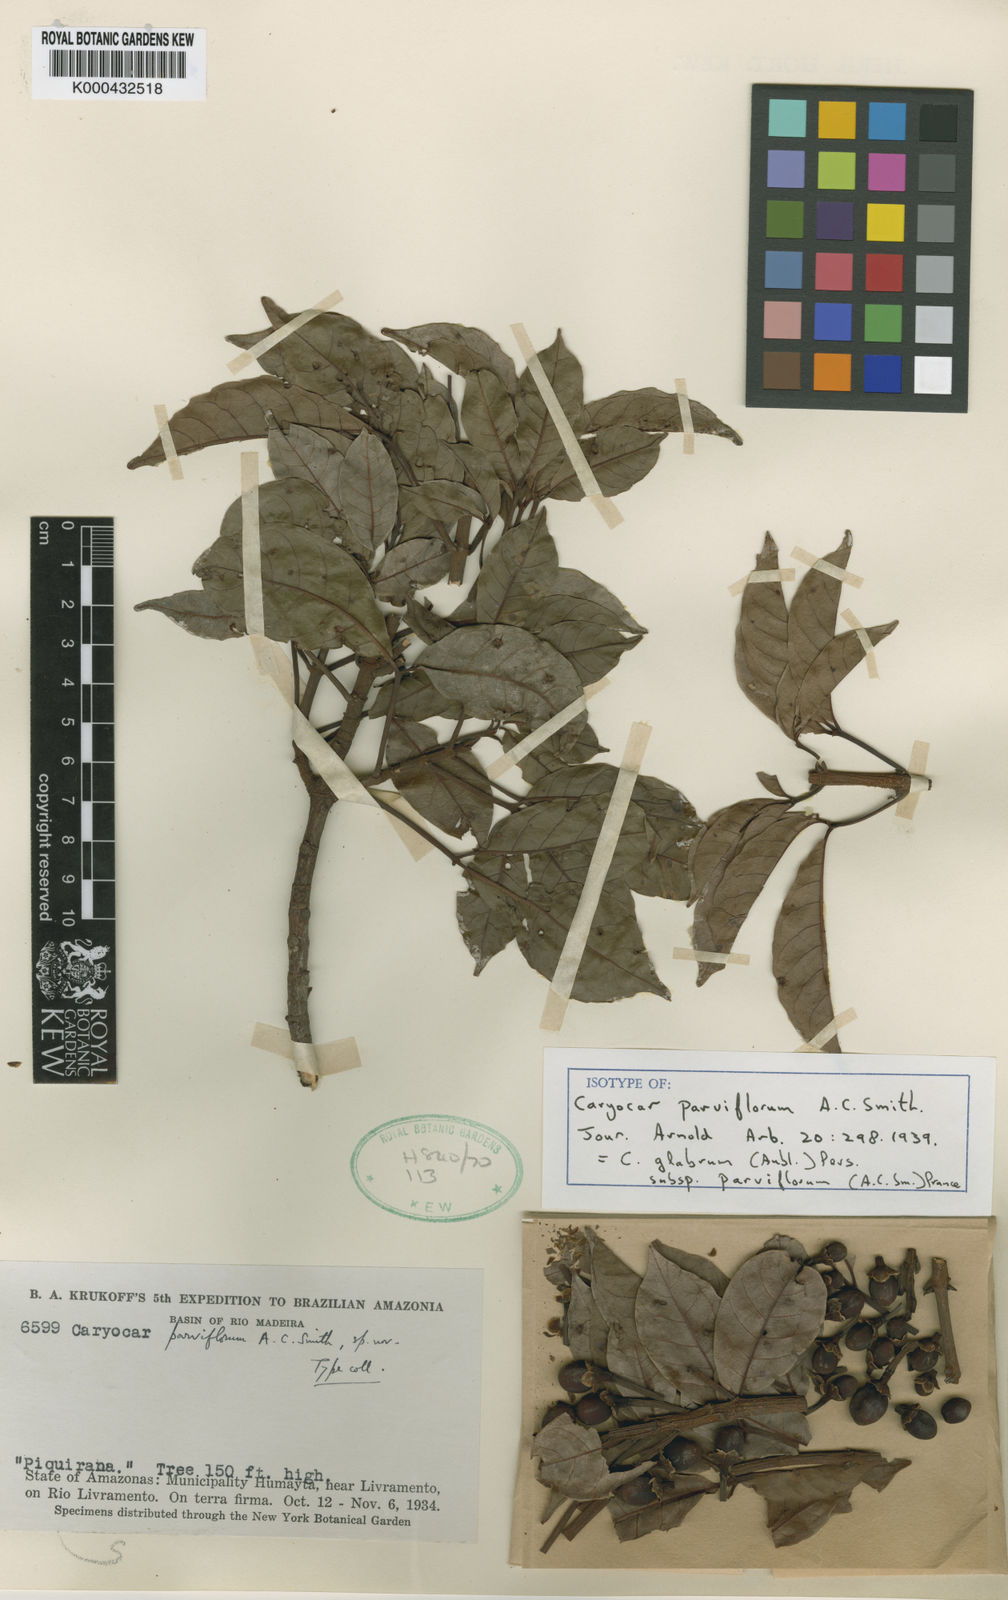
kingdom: Plantae
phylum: Tracheophyta
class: Magnoliopsida
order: Malpighiales
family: Caryocaraceae
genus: Caryocar
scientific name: Caryocar glabrum
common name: Bat's souari
